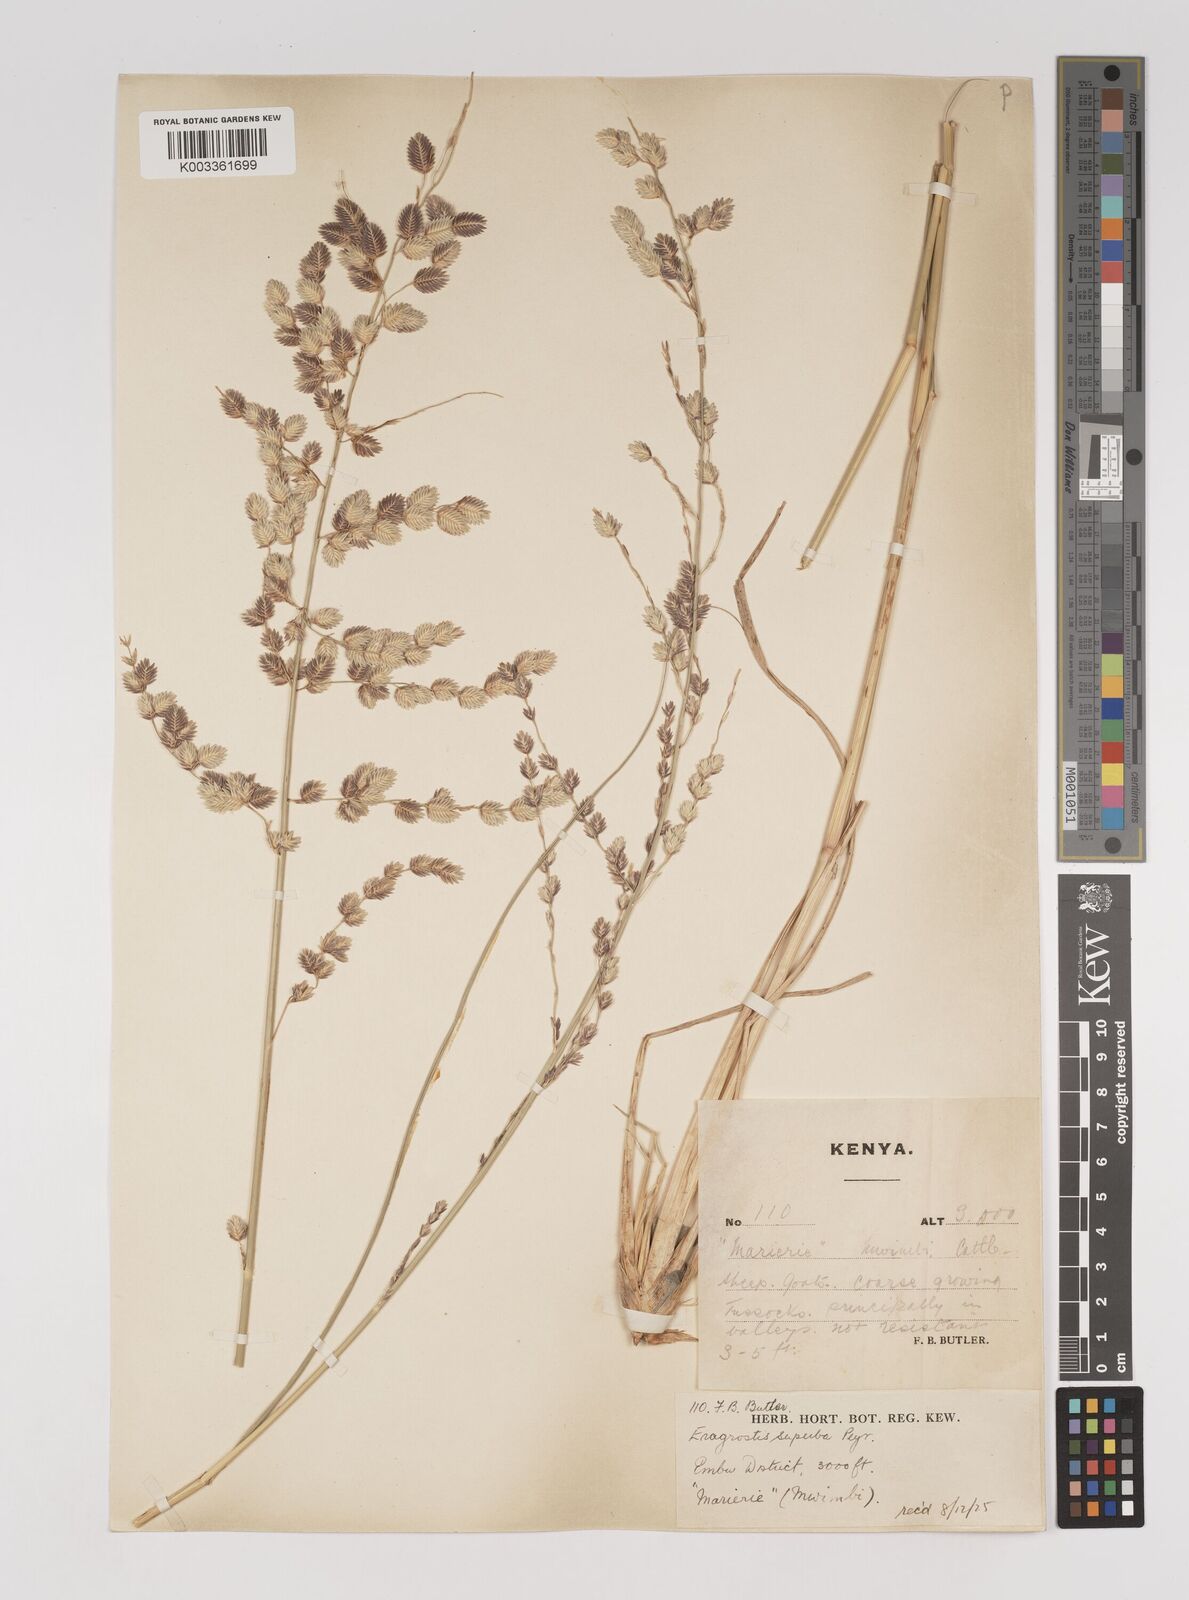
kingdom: Plantae
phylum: Tracheophyta
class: Liliopsida
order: Poales
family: Poaceae
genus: Eragrostis
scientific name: Eragrostis superba
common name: Wilman lovegrass
